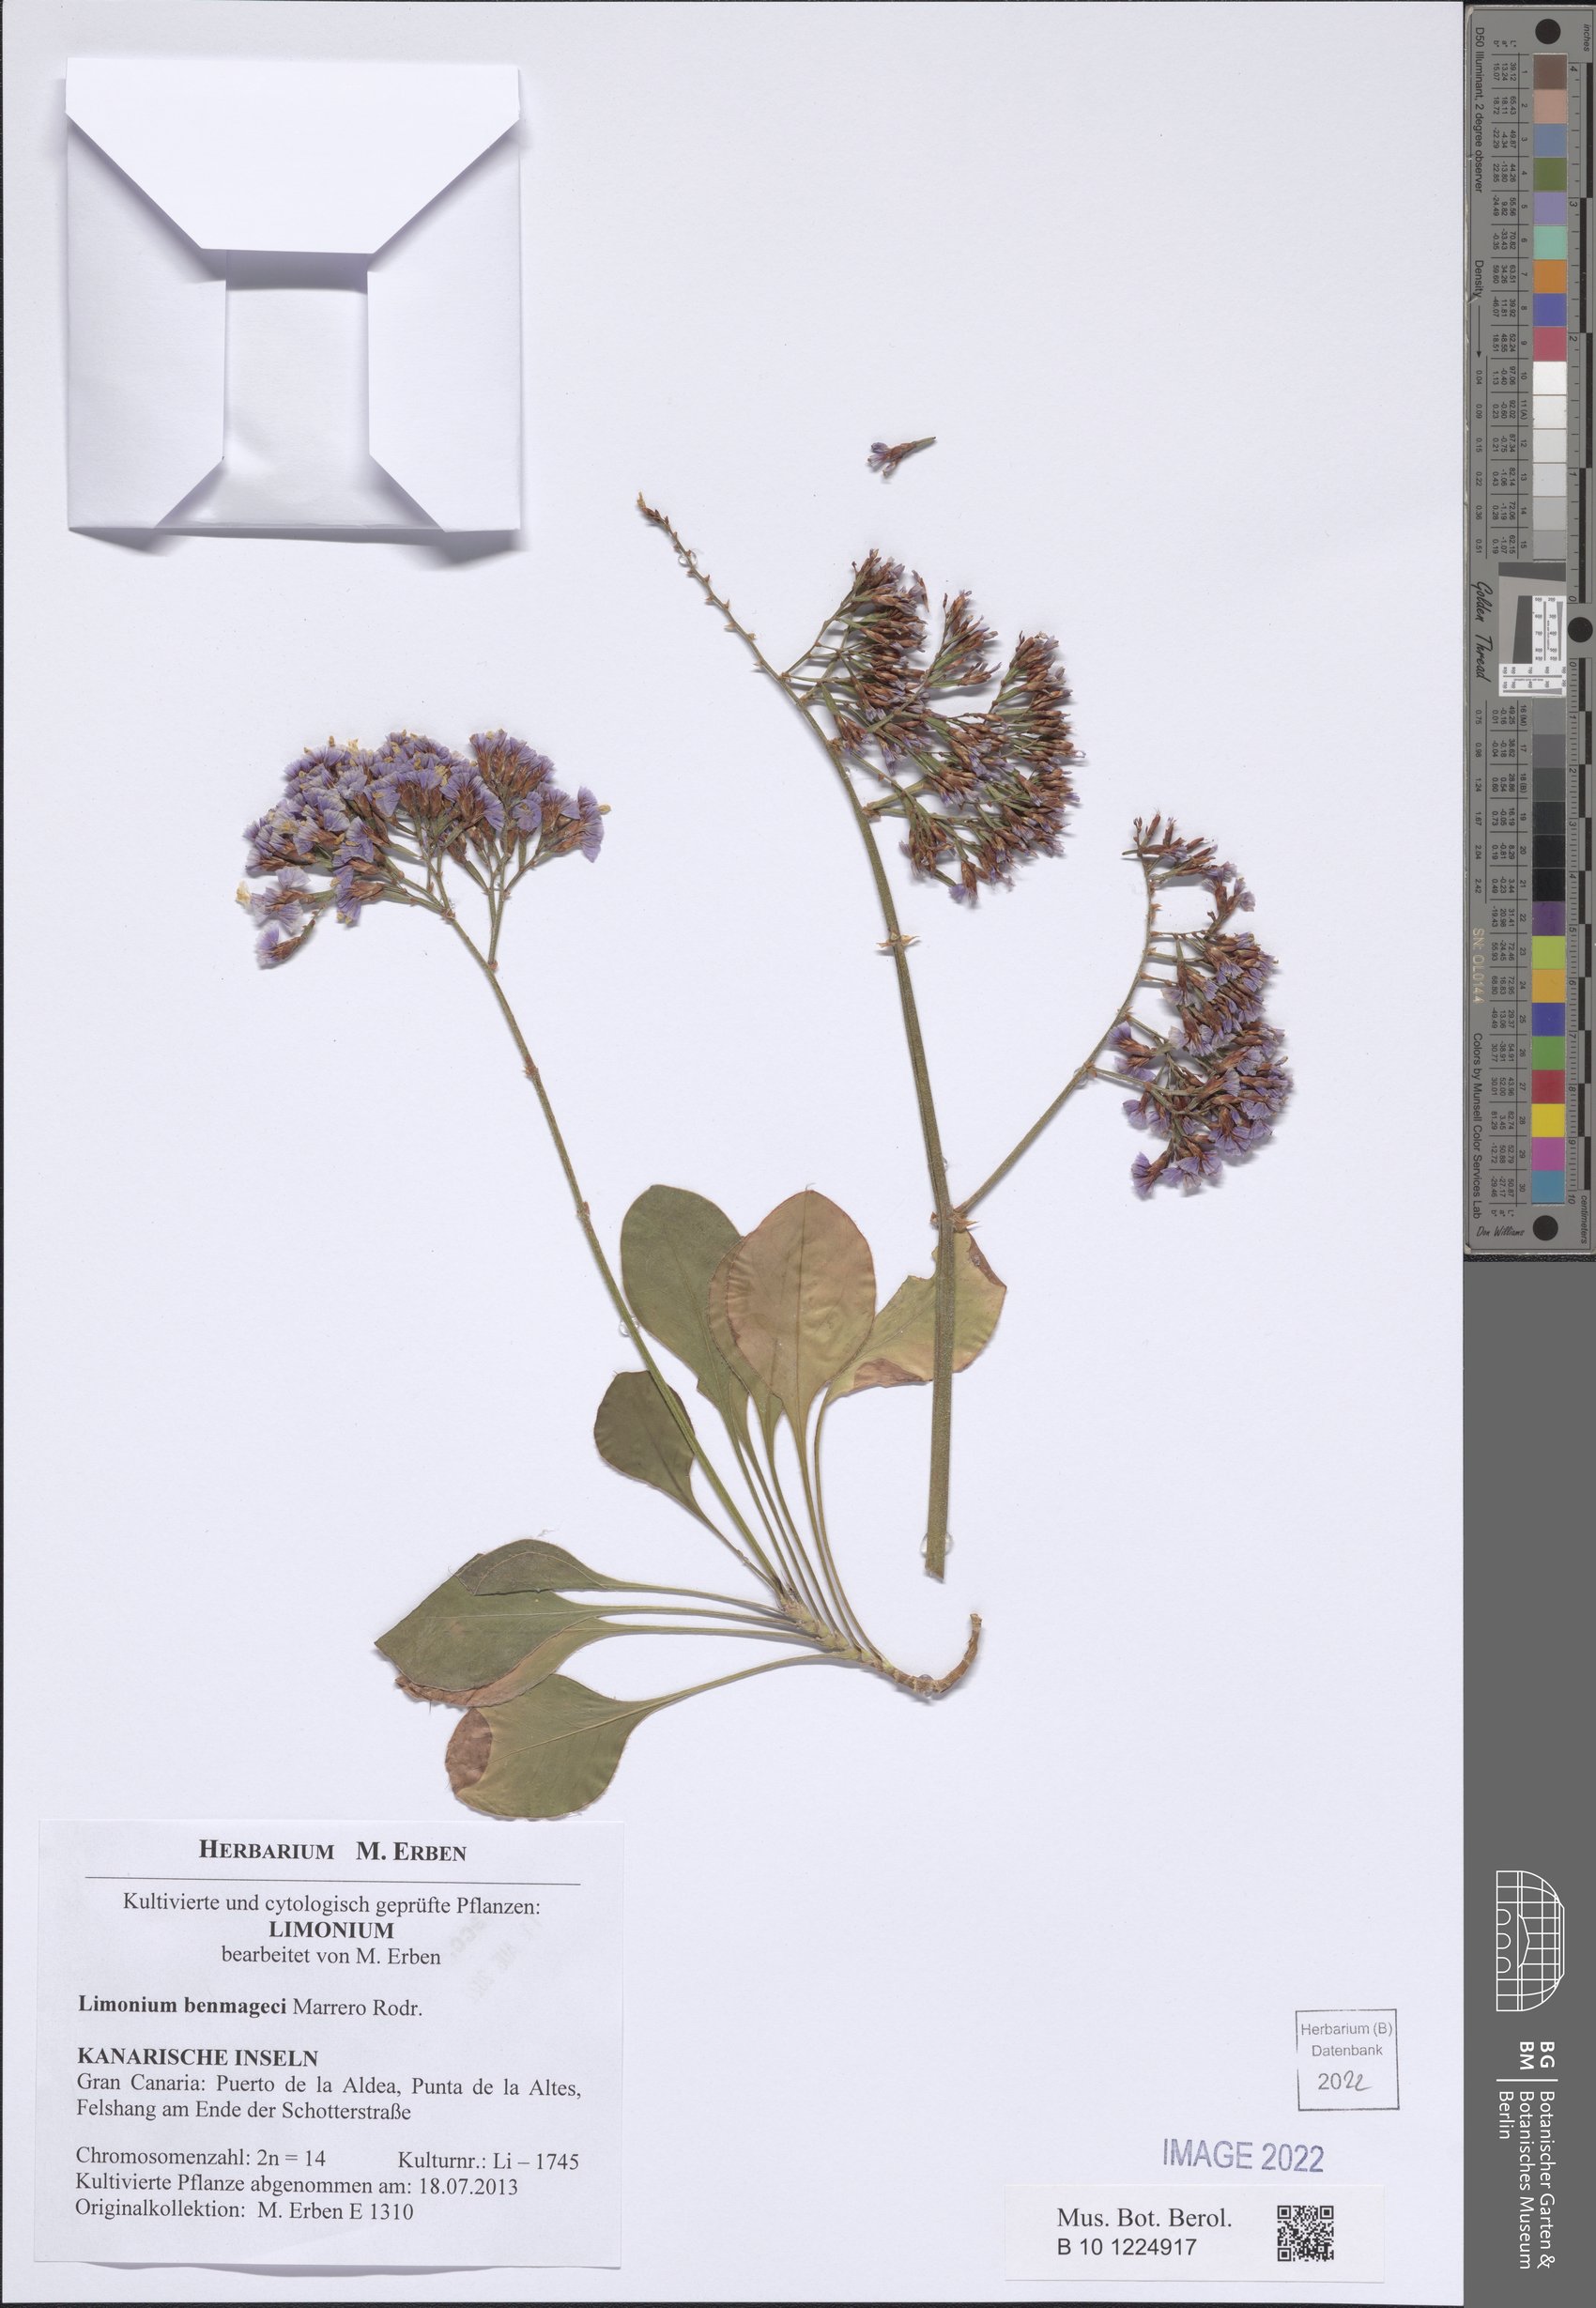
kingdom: Plantae
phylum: Tracheophyta
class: Magnoliopsida
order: Caryophyllales
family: Plumbaginaceae
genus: Limonium
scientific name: Limonium benmageci
